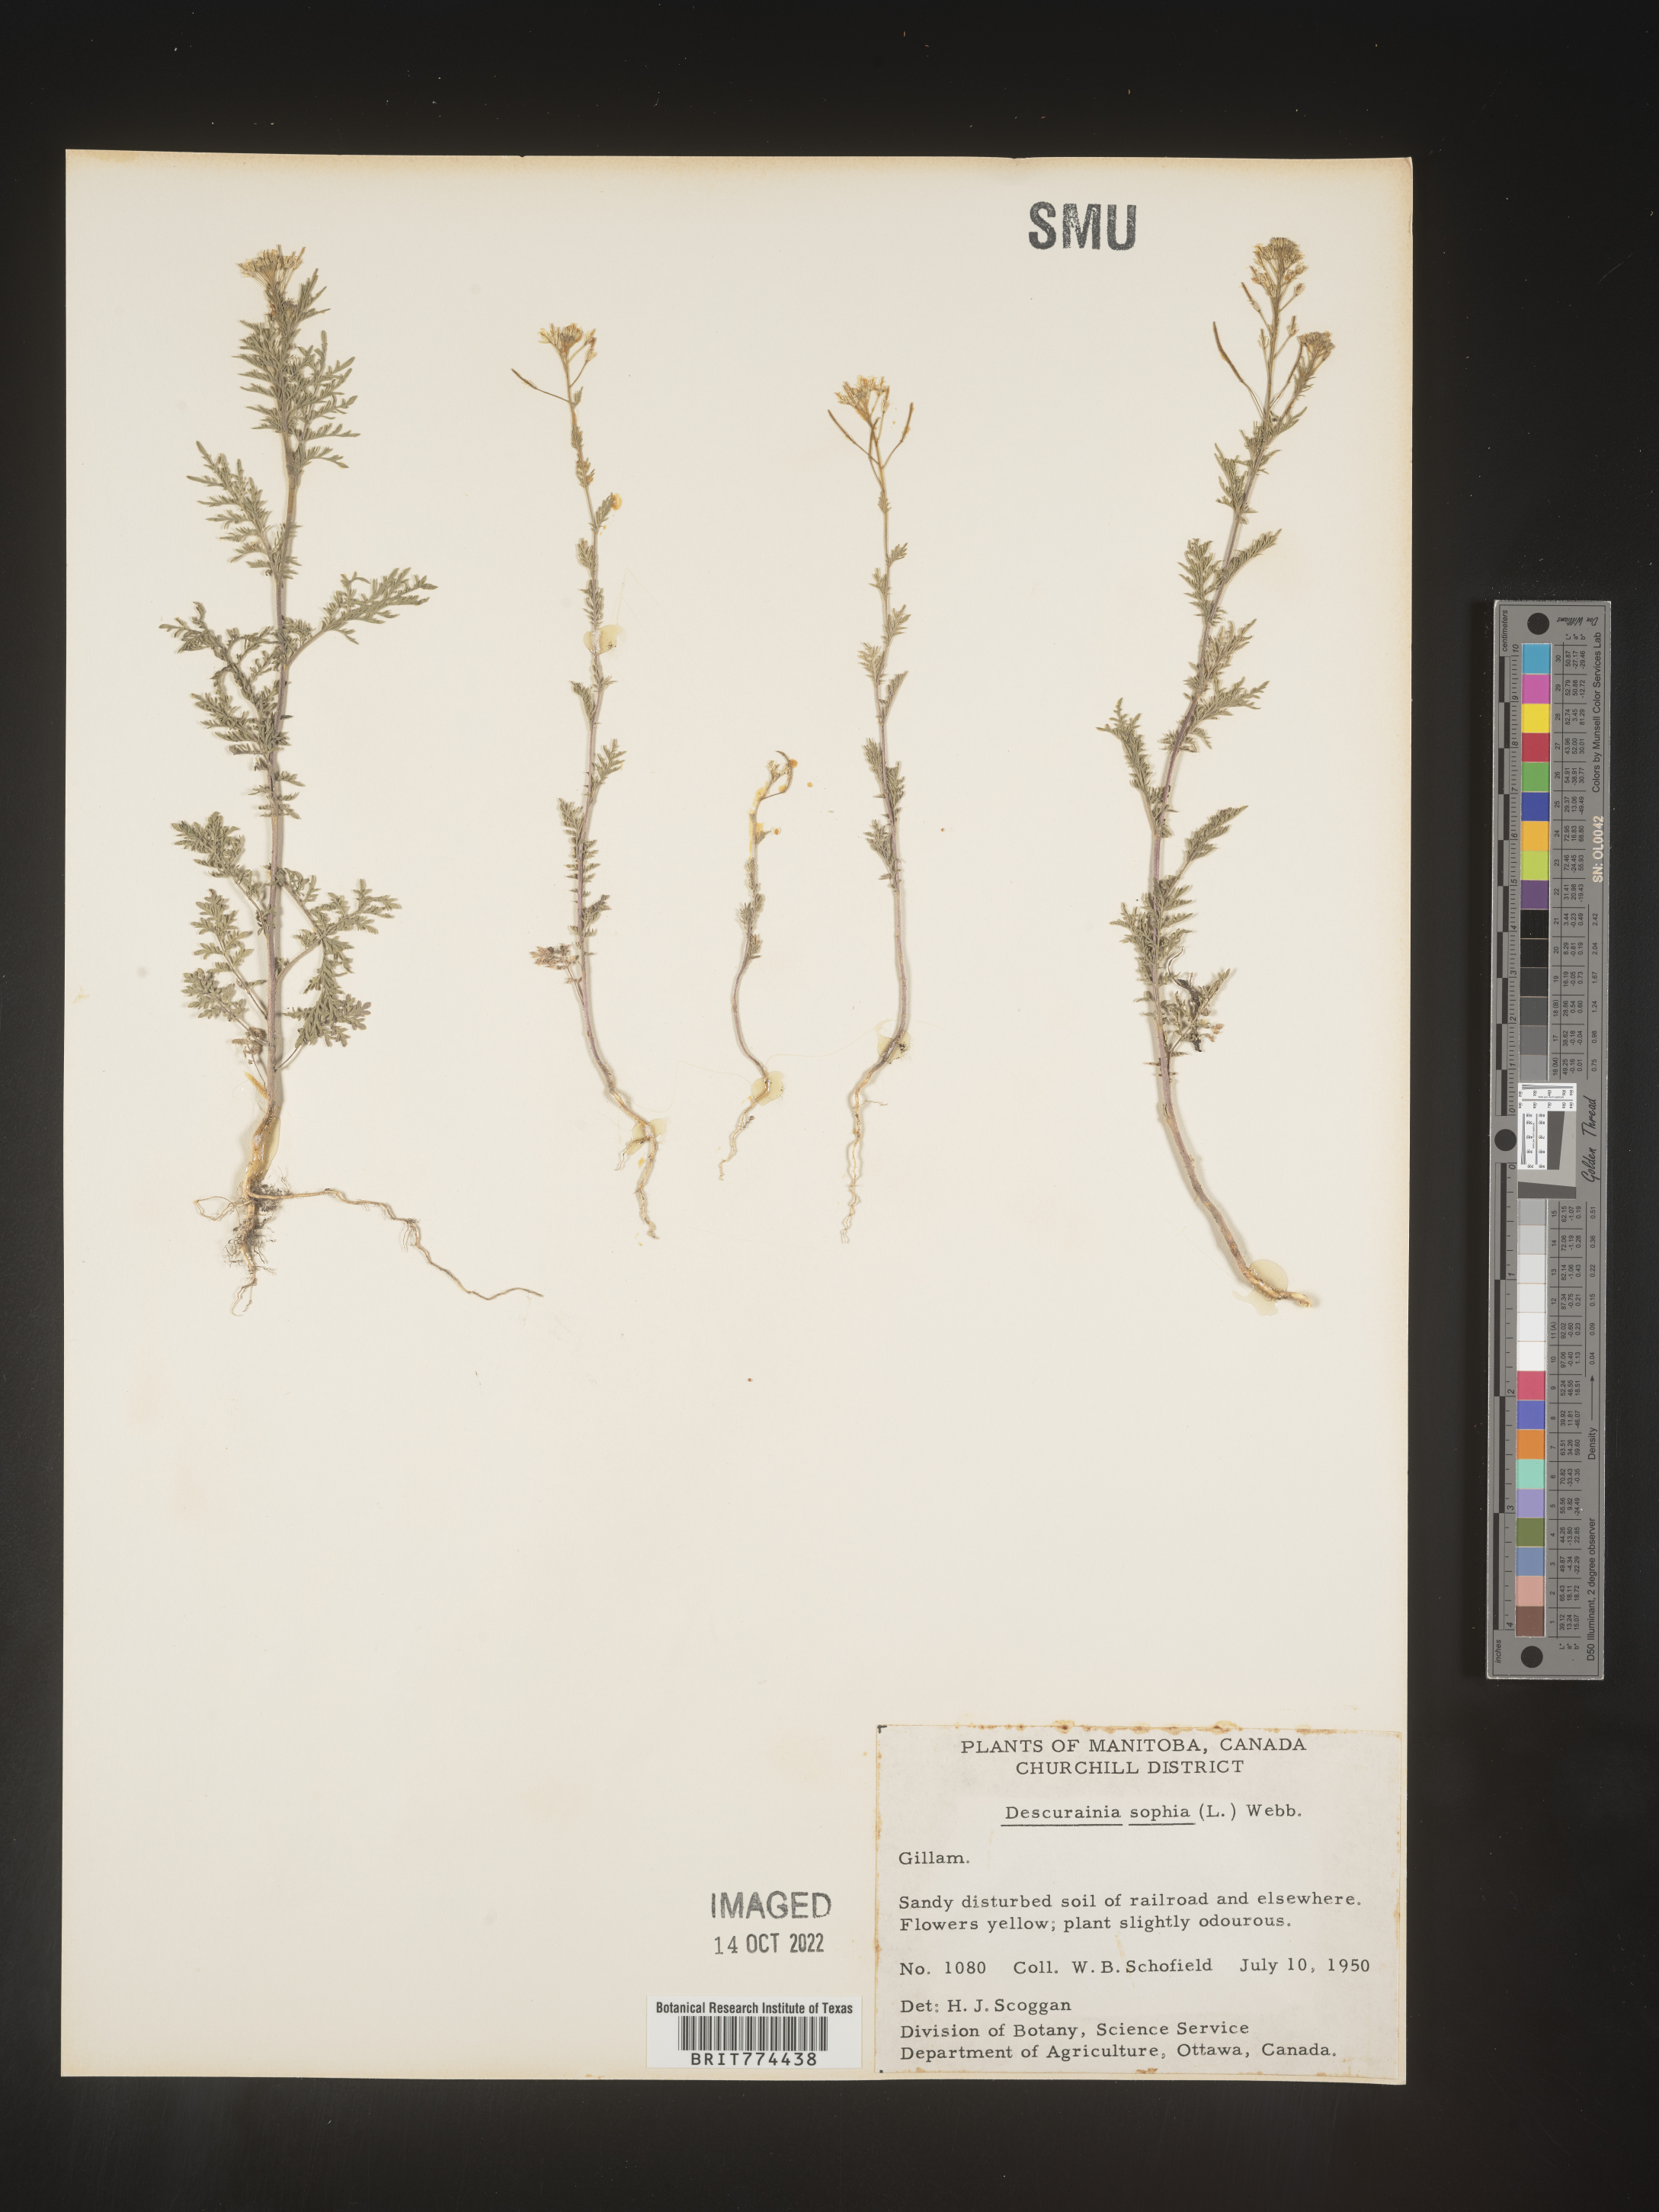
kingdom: Plantae
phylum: Tracheophyta
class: Magnoliopsida
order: Brassicales
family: Brassicaceae
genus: Descurainia
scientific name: Descurainia sophia
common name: Flixweed
